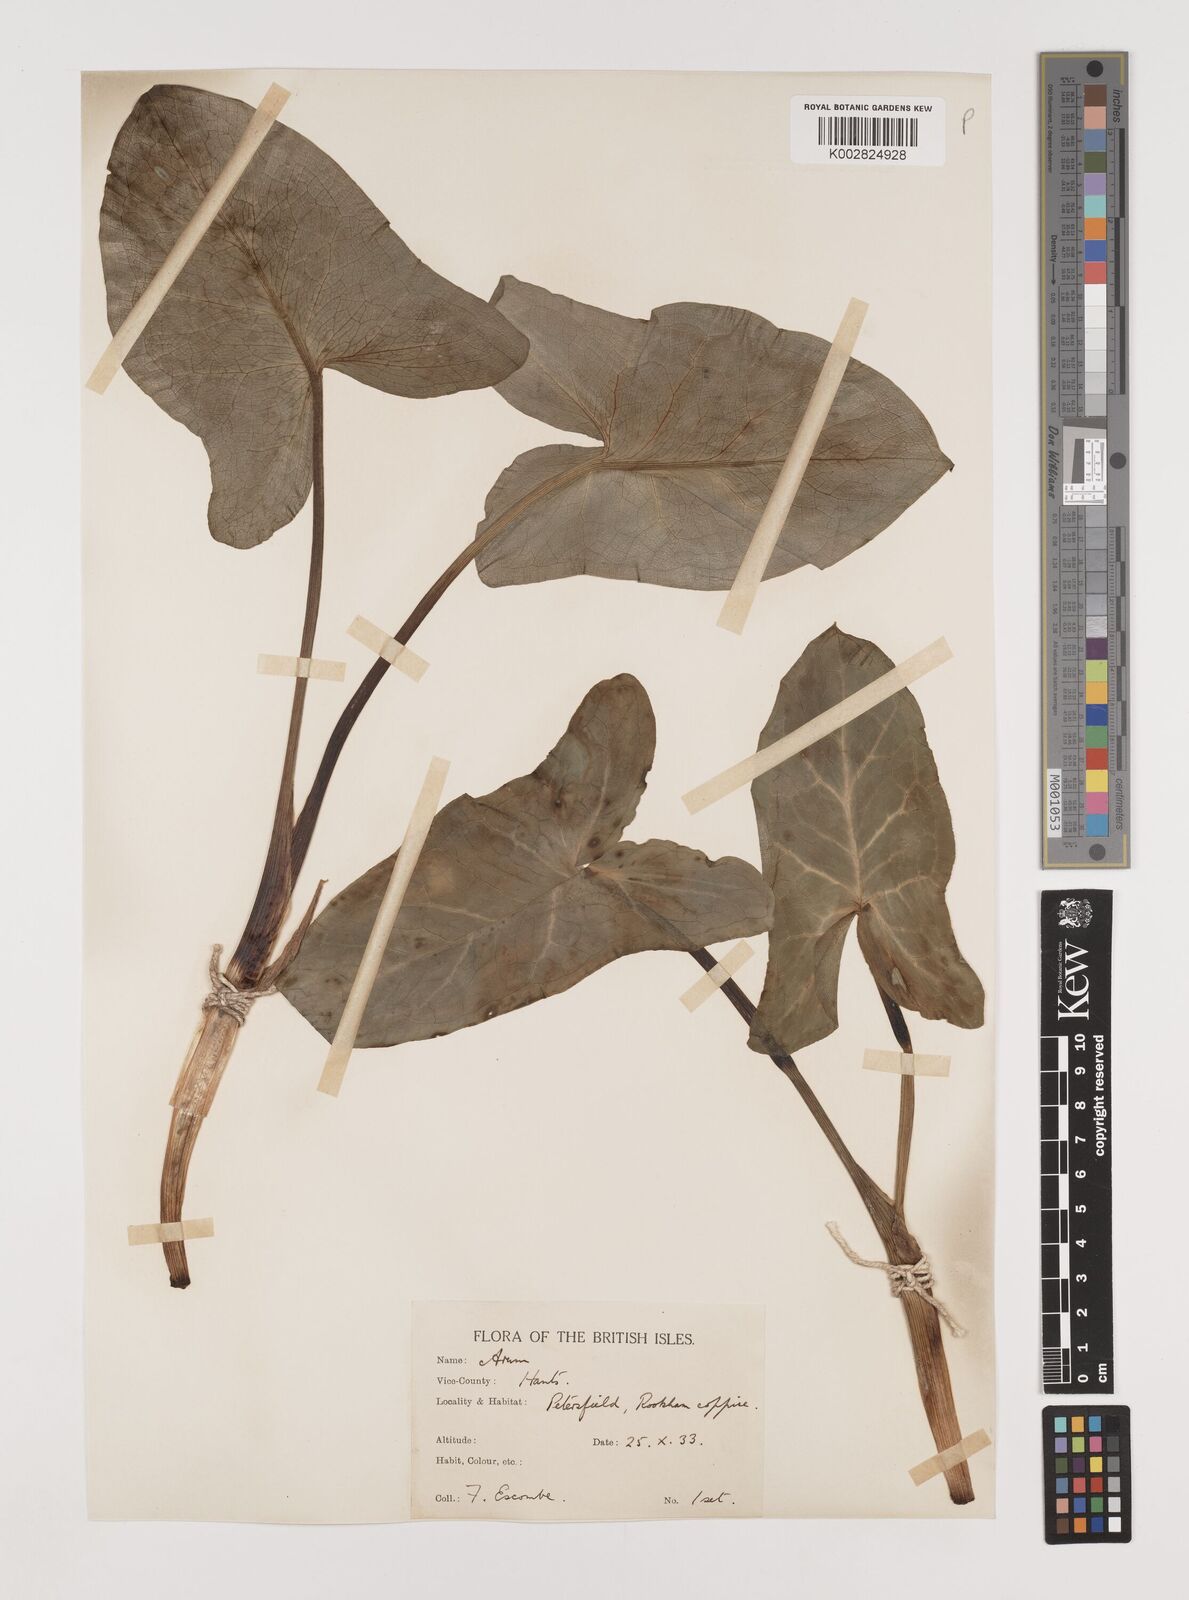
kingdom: Plantae
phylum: Tracheophyta
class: Liliopsida
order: Alismatales
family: Araceae
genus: Arum
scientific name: Arum italicum
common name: Italian lords-and-ladies
